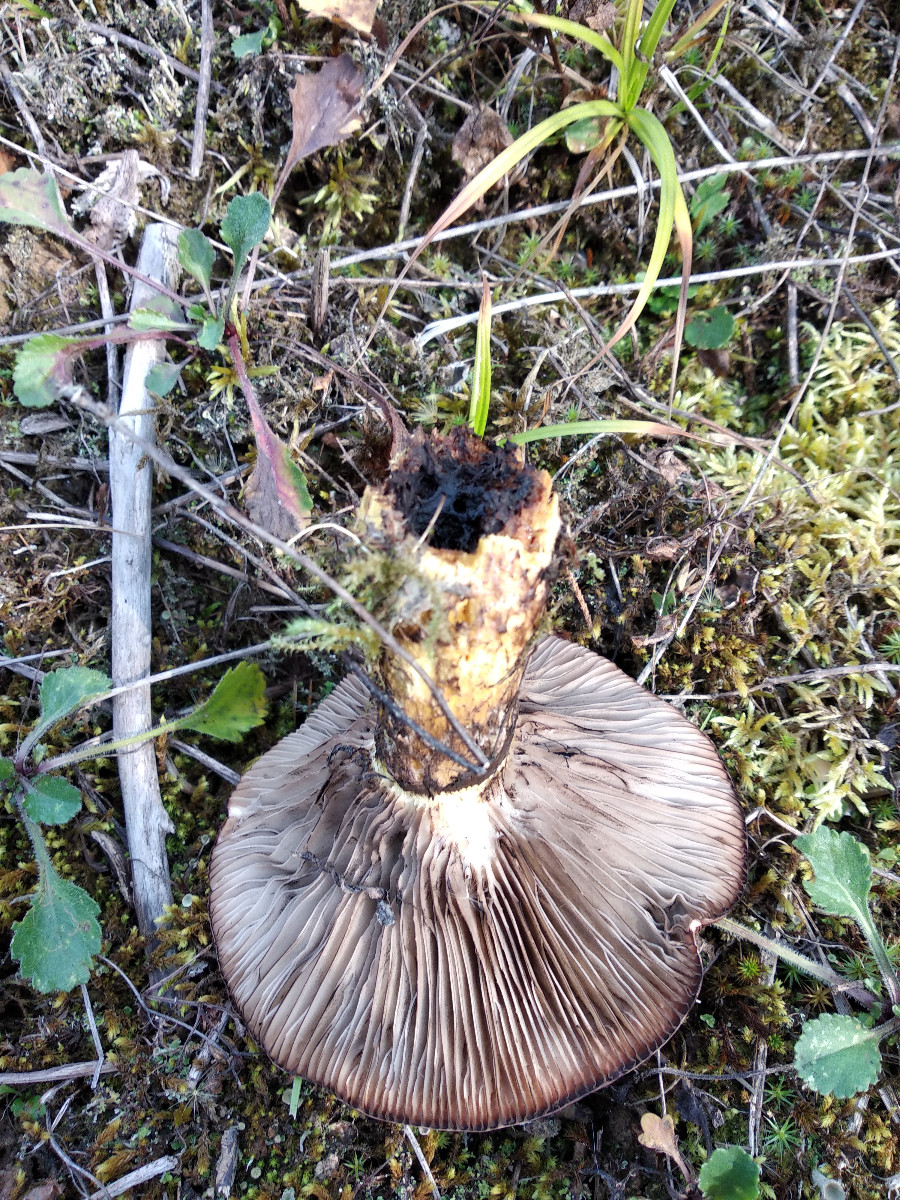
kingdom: Fungi
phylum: Basidiomycota
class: Agaricomycetes
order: Boletales
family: Gomphidiaceae
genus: Gomphidius
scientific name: Gomphidius
